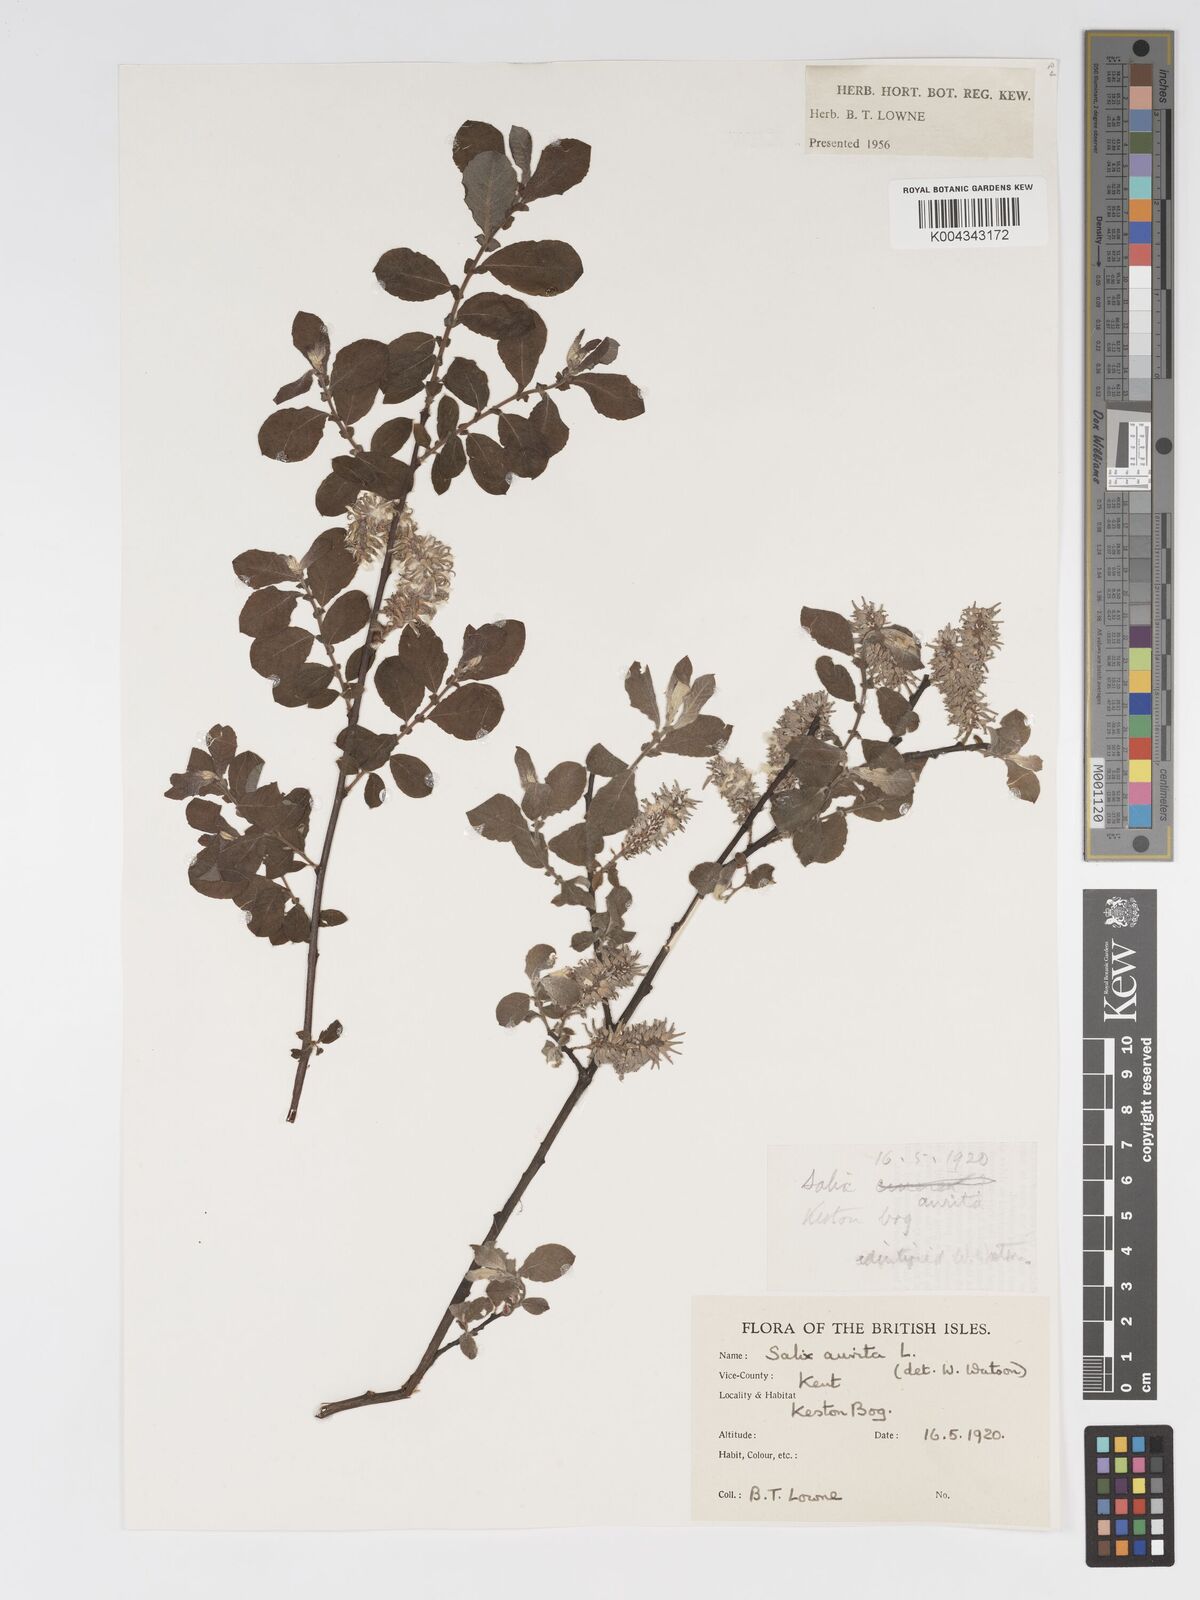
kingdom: Plantae
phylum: Tracheophyta
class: Magnoliopsida
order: Malpighiales
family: Salicaceae
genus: Salix
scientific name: Salix aurita
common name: Eared willow
